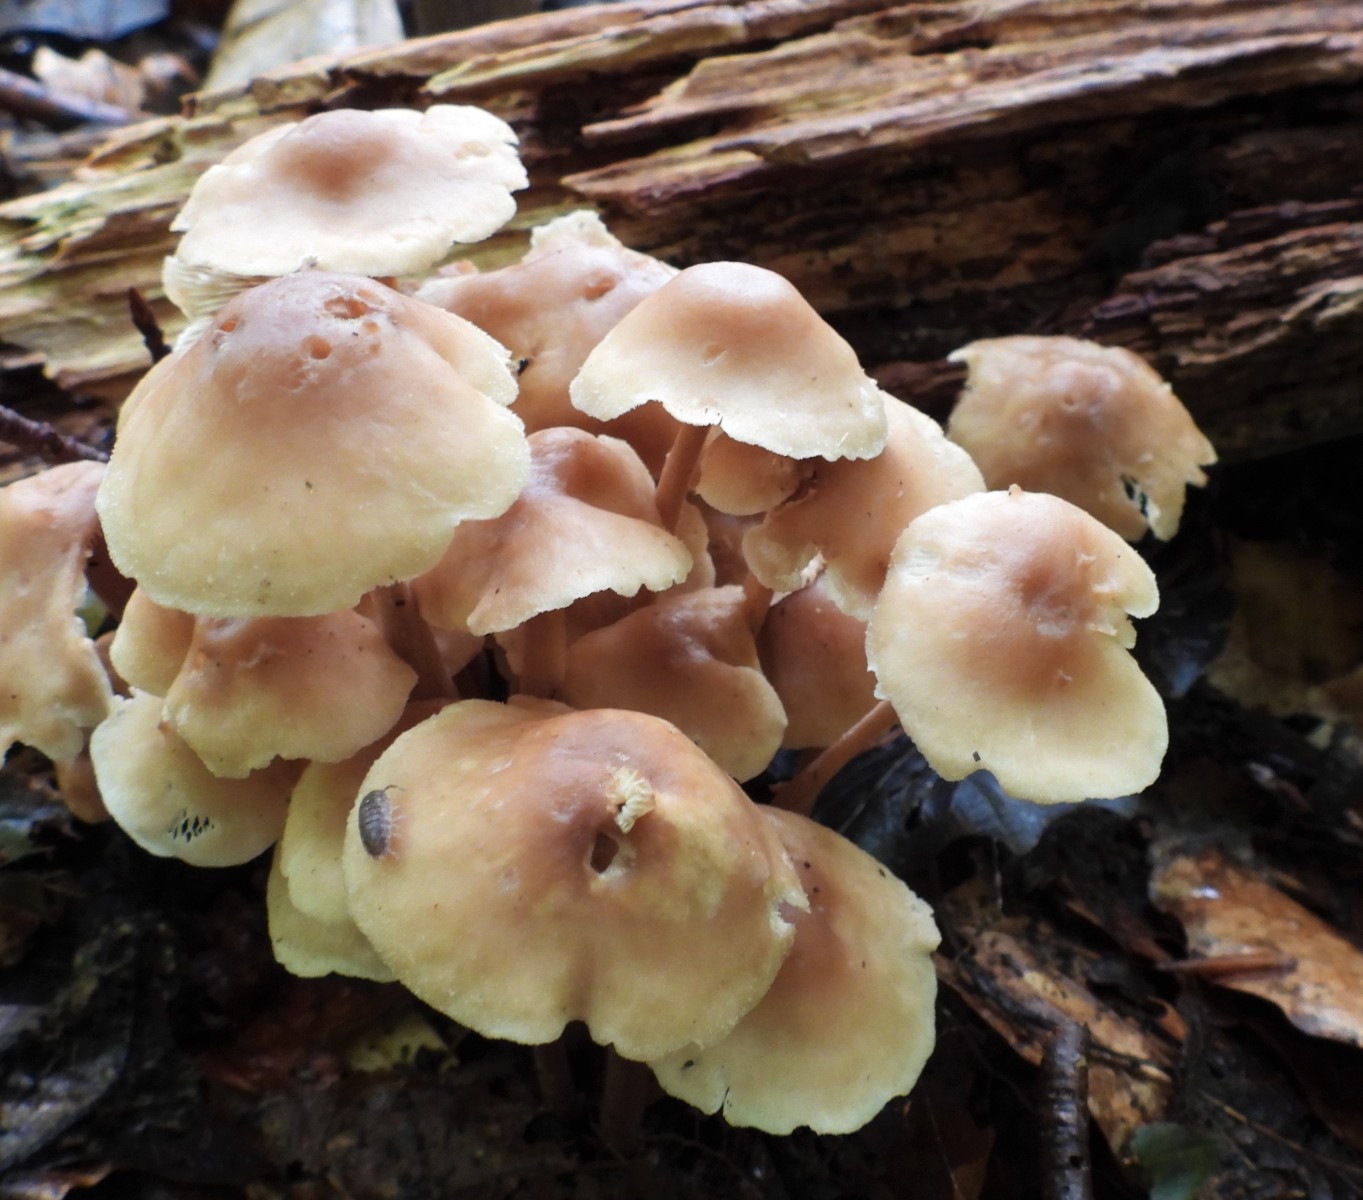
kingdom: Fungi
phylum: Basidiomycota
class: Agaricomycetes
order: Agaricales
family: Omphalotaceae
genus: Collybiopsis
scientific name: Collybiopsis confluens
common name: knippe-fladhat
